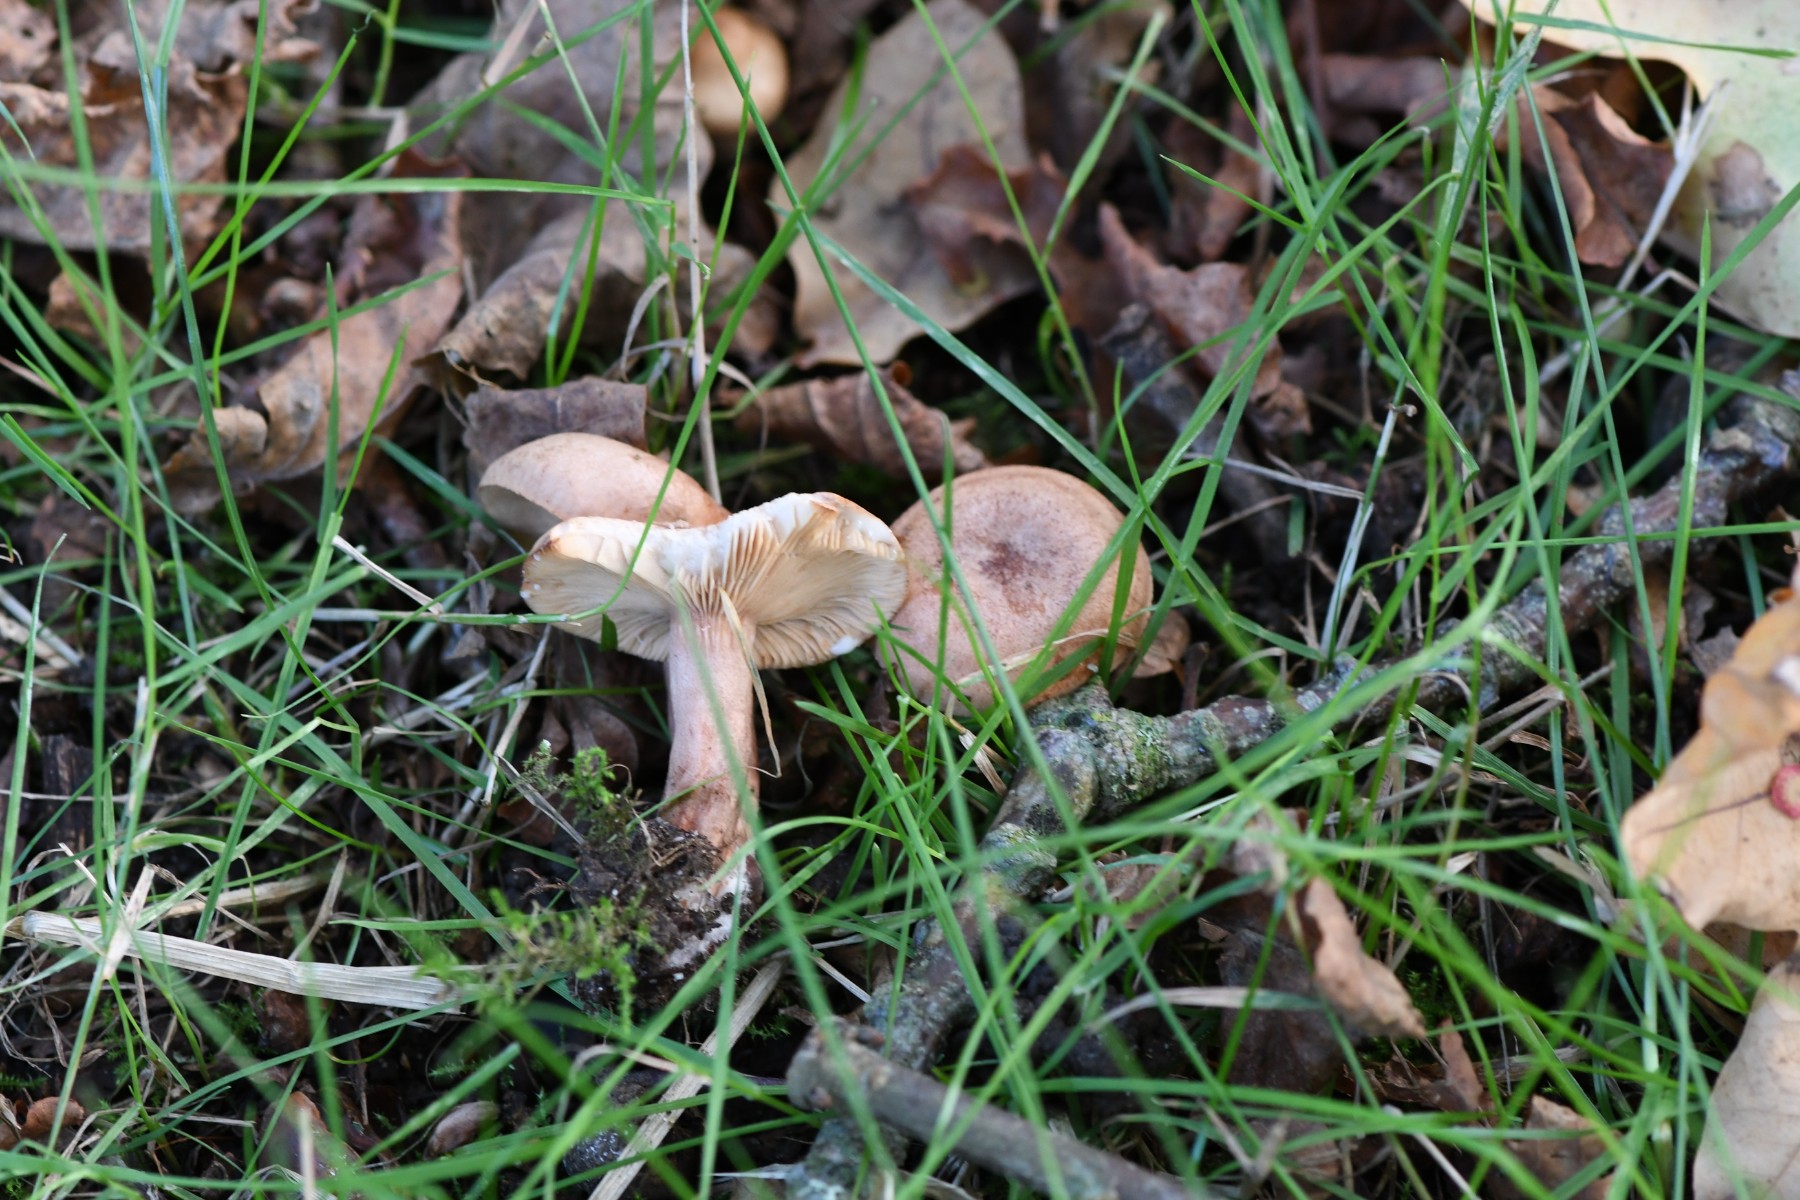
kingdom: Fungi
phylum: Basidiomycota
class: Agaricomycetes
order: Russulales
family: Russulaceae
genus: Lactarius
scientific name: Lactarius quietus
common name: ege-mælkehat
